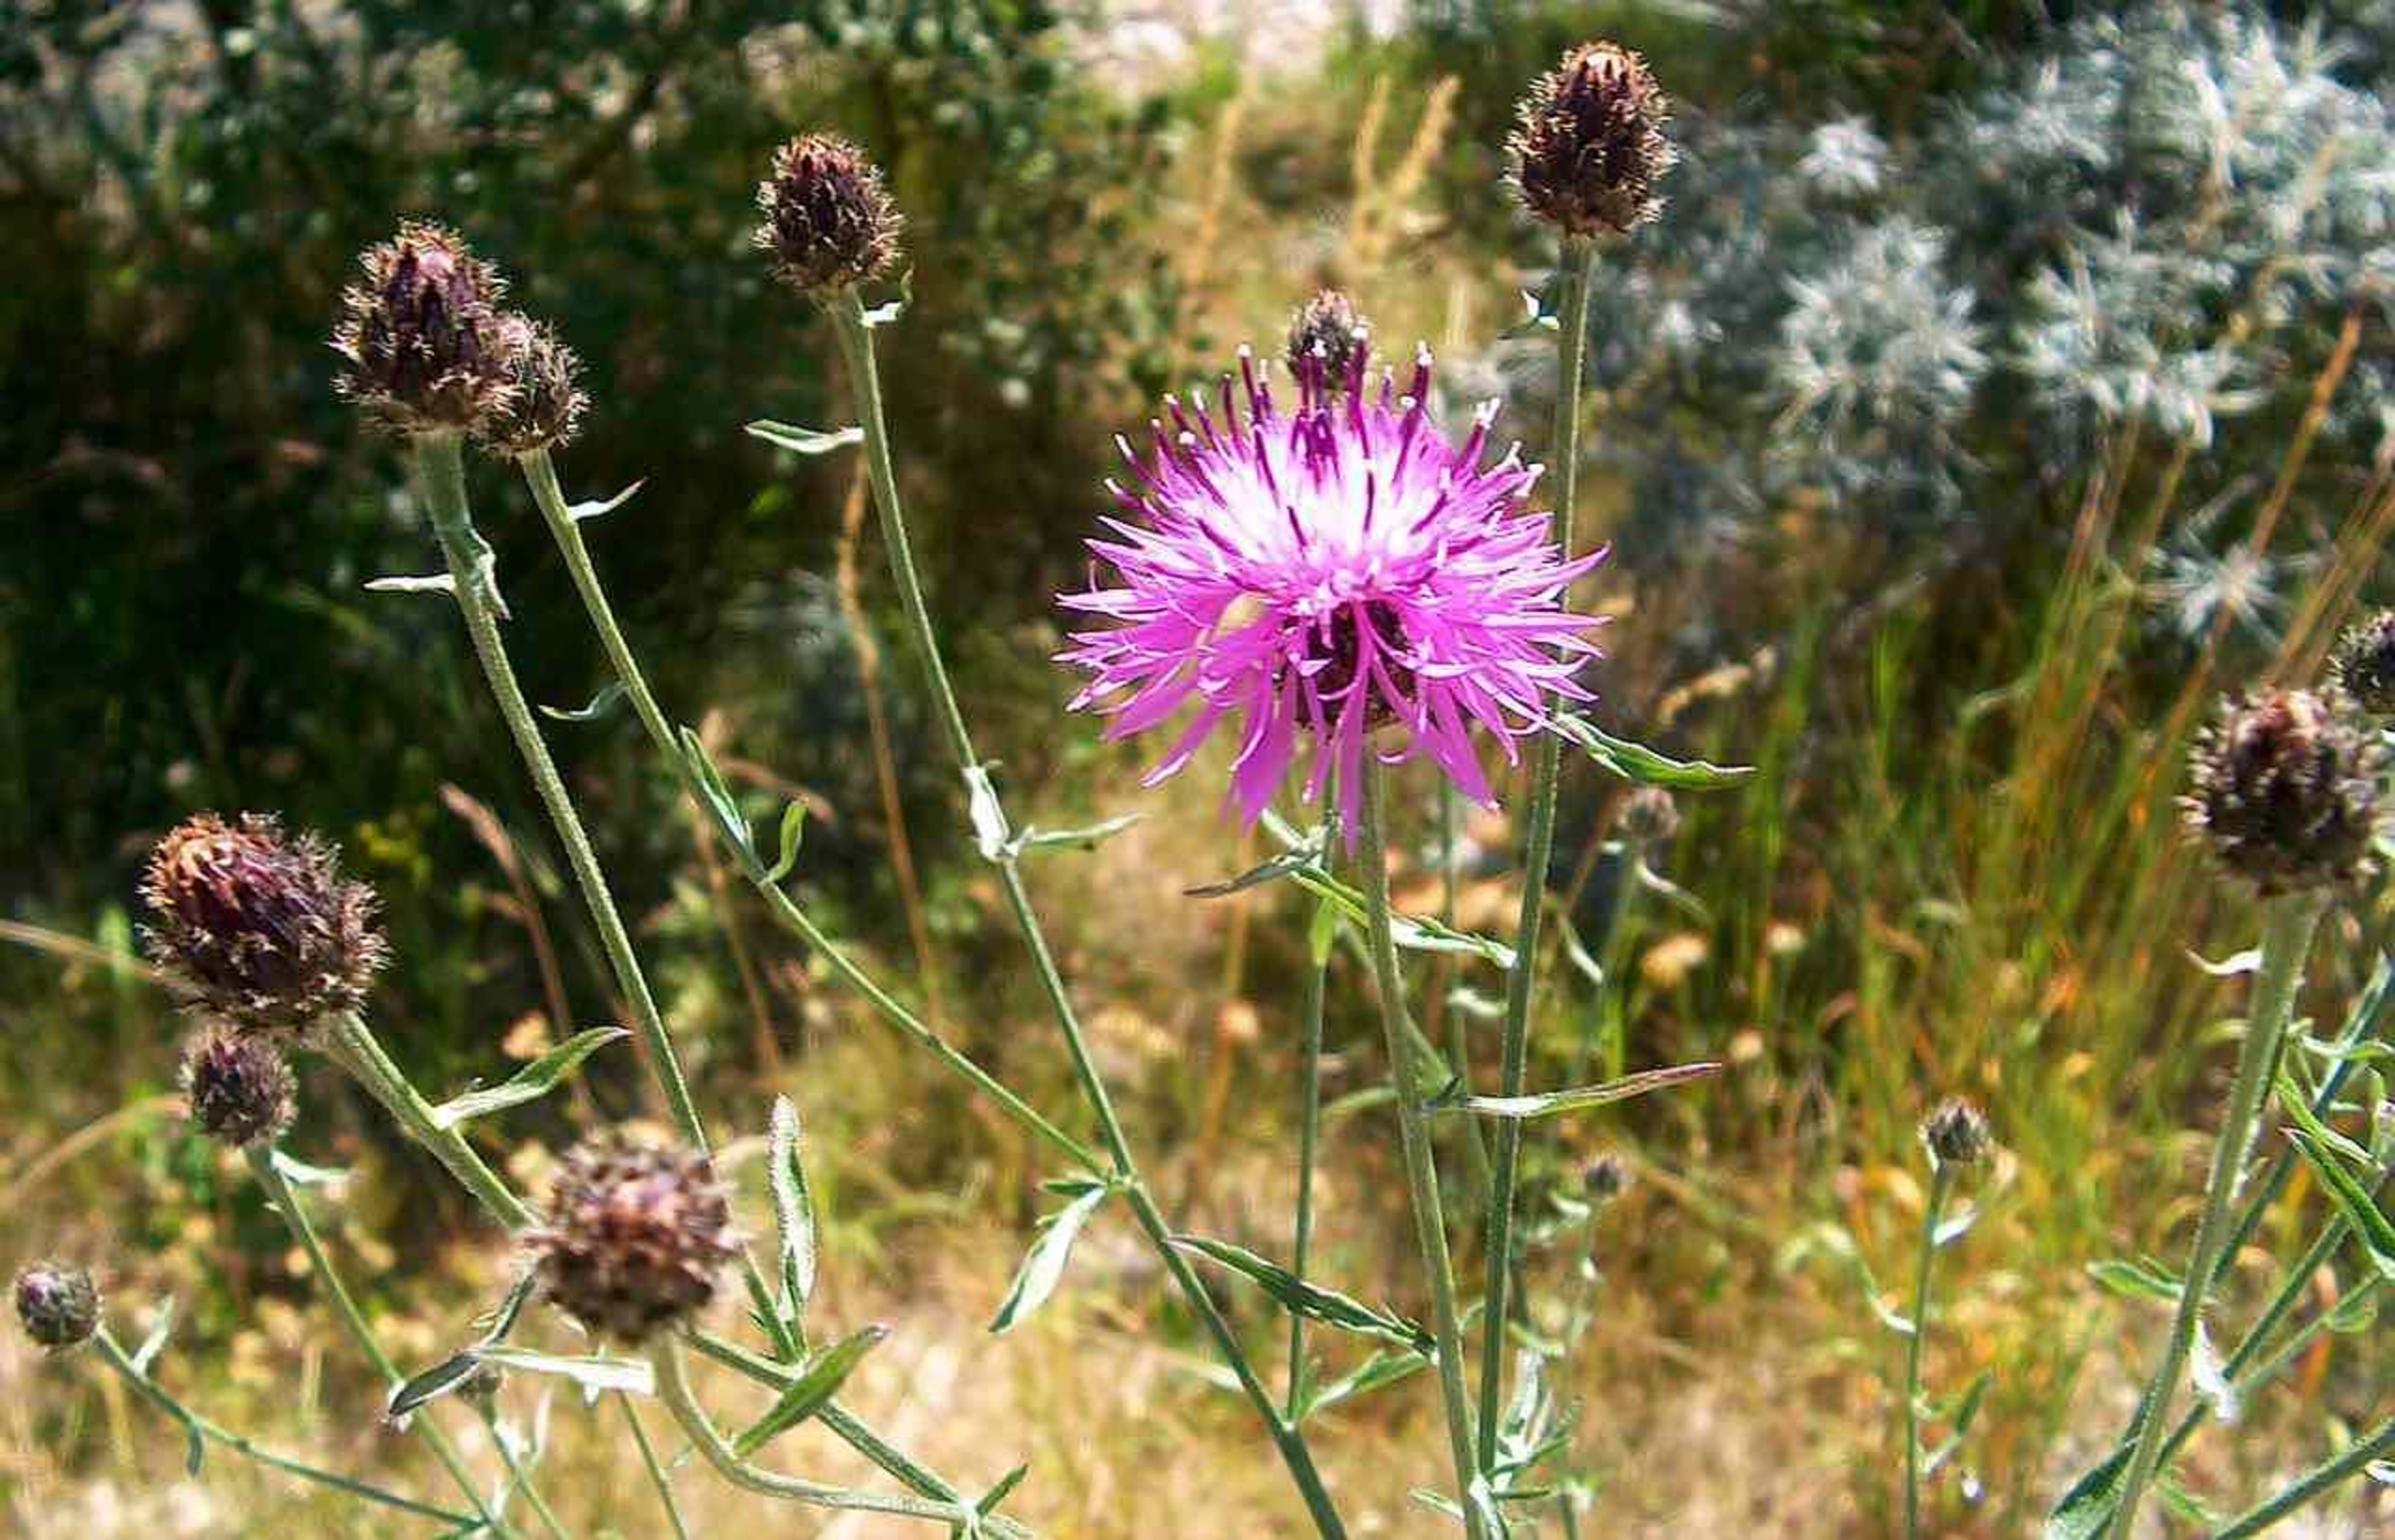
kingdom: Plantae
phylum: Tracheophyta
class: Magnoliopsida
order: Asterales
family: Asteraceae
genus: Centaurea
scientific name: Centaurea stoebe
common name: Mangegrenet knopurt
